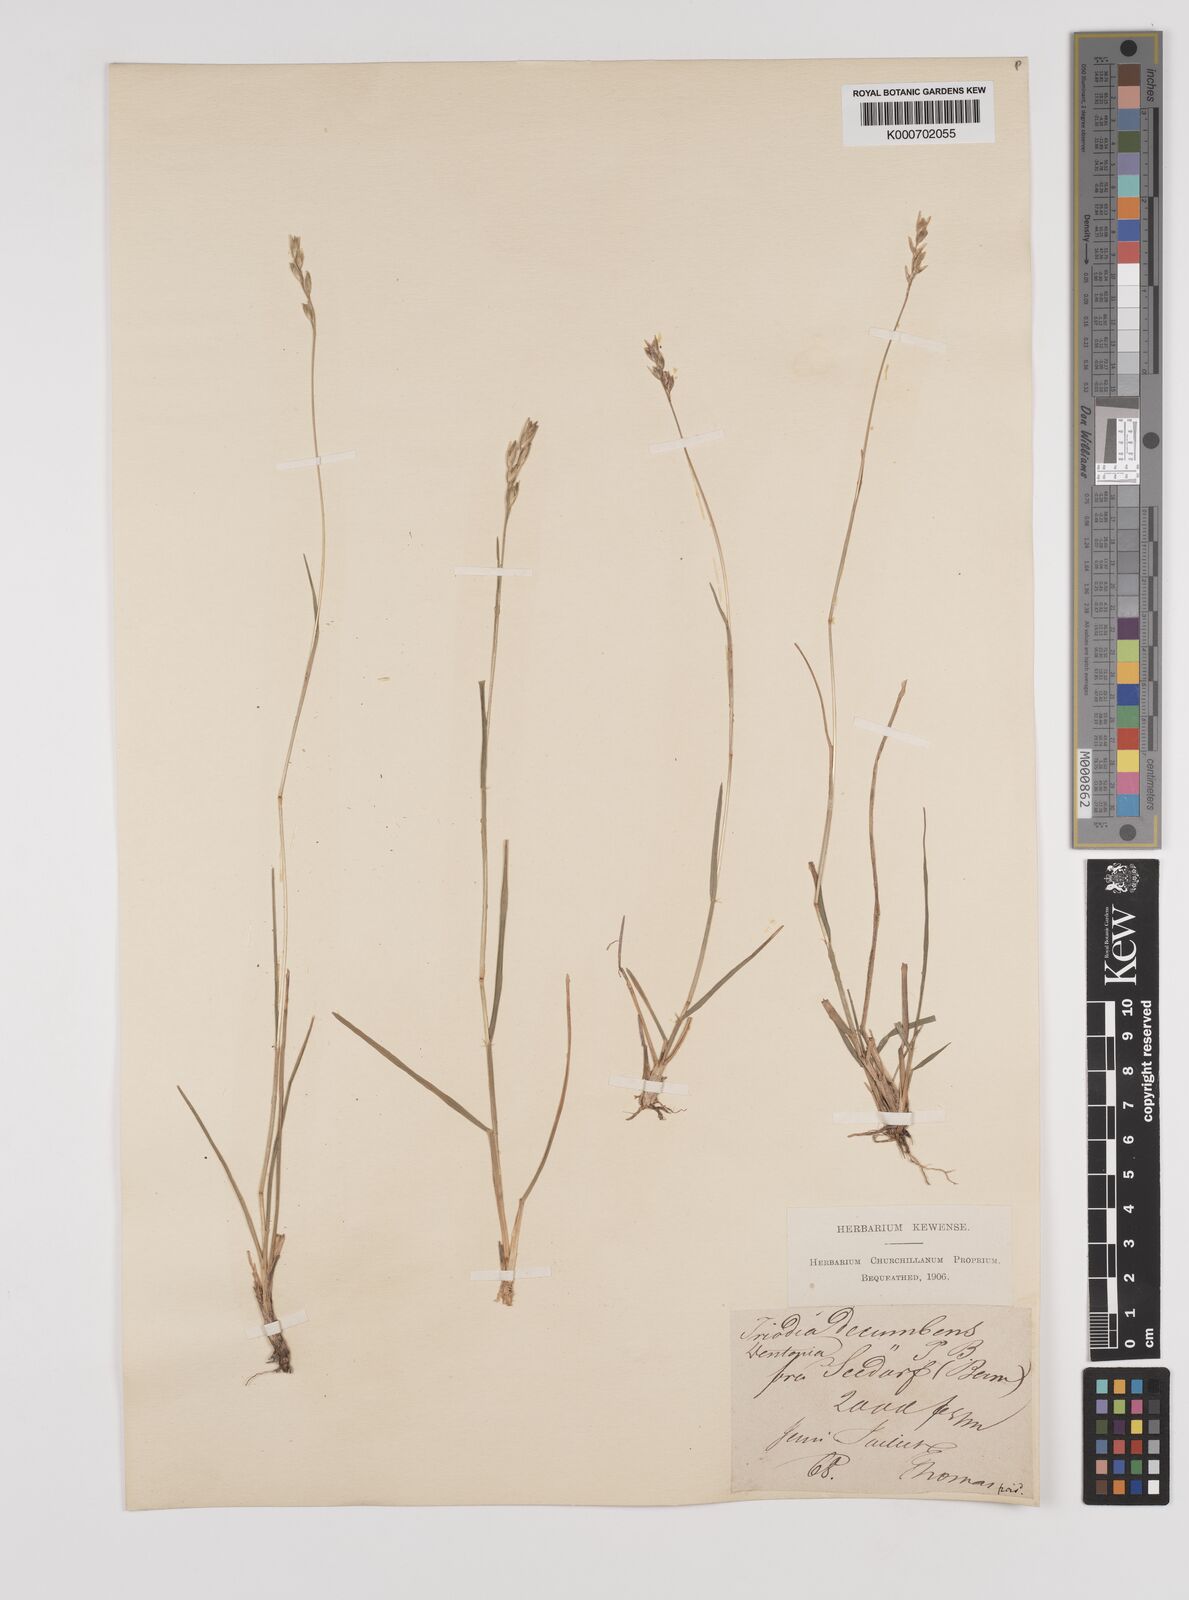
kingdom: Plantae
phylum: Tracheophyta
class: Liliopsida
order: Poales
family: Poaceae
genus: Danthonia
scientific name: Danthonia decumbens
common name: Common heathgrass
